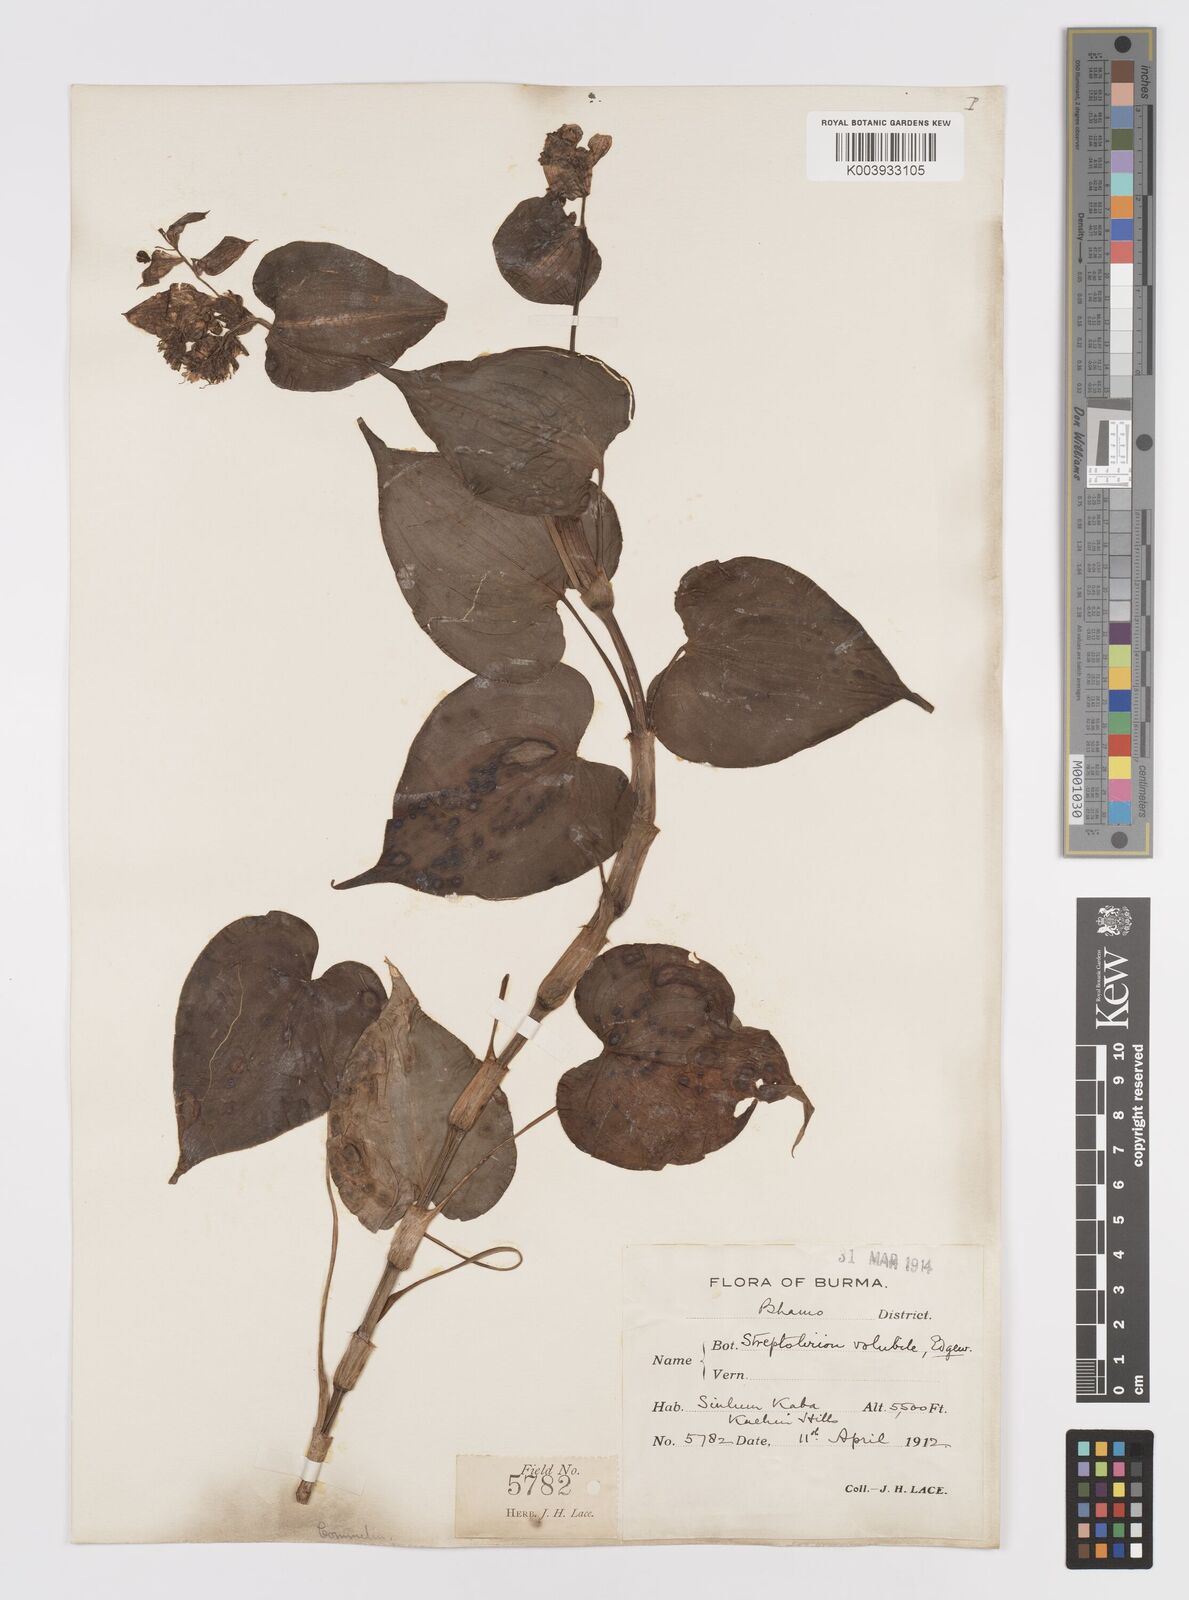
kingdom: Plantae
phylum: Tracheophyta
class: Liliopsida
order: Commelinales
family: Commelinaceae
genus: Streptolirion
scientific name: Streptolirion volubile
